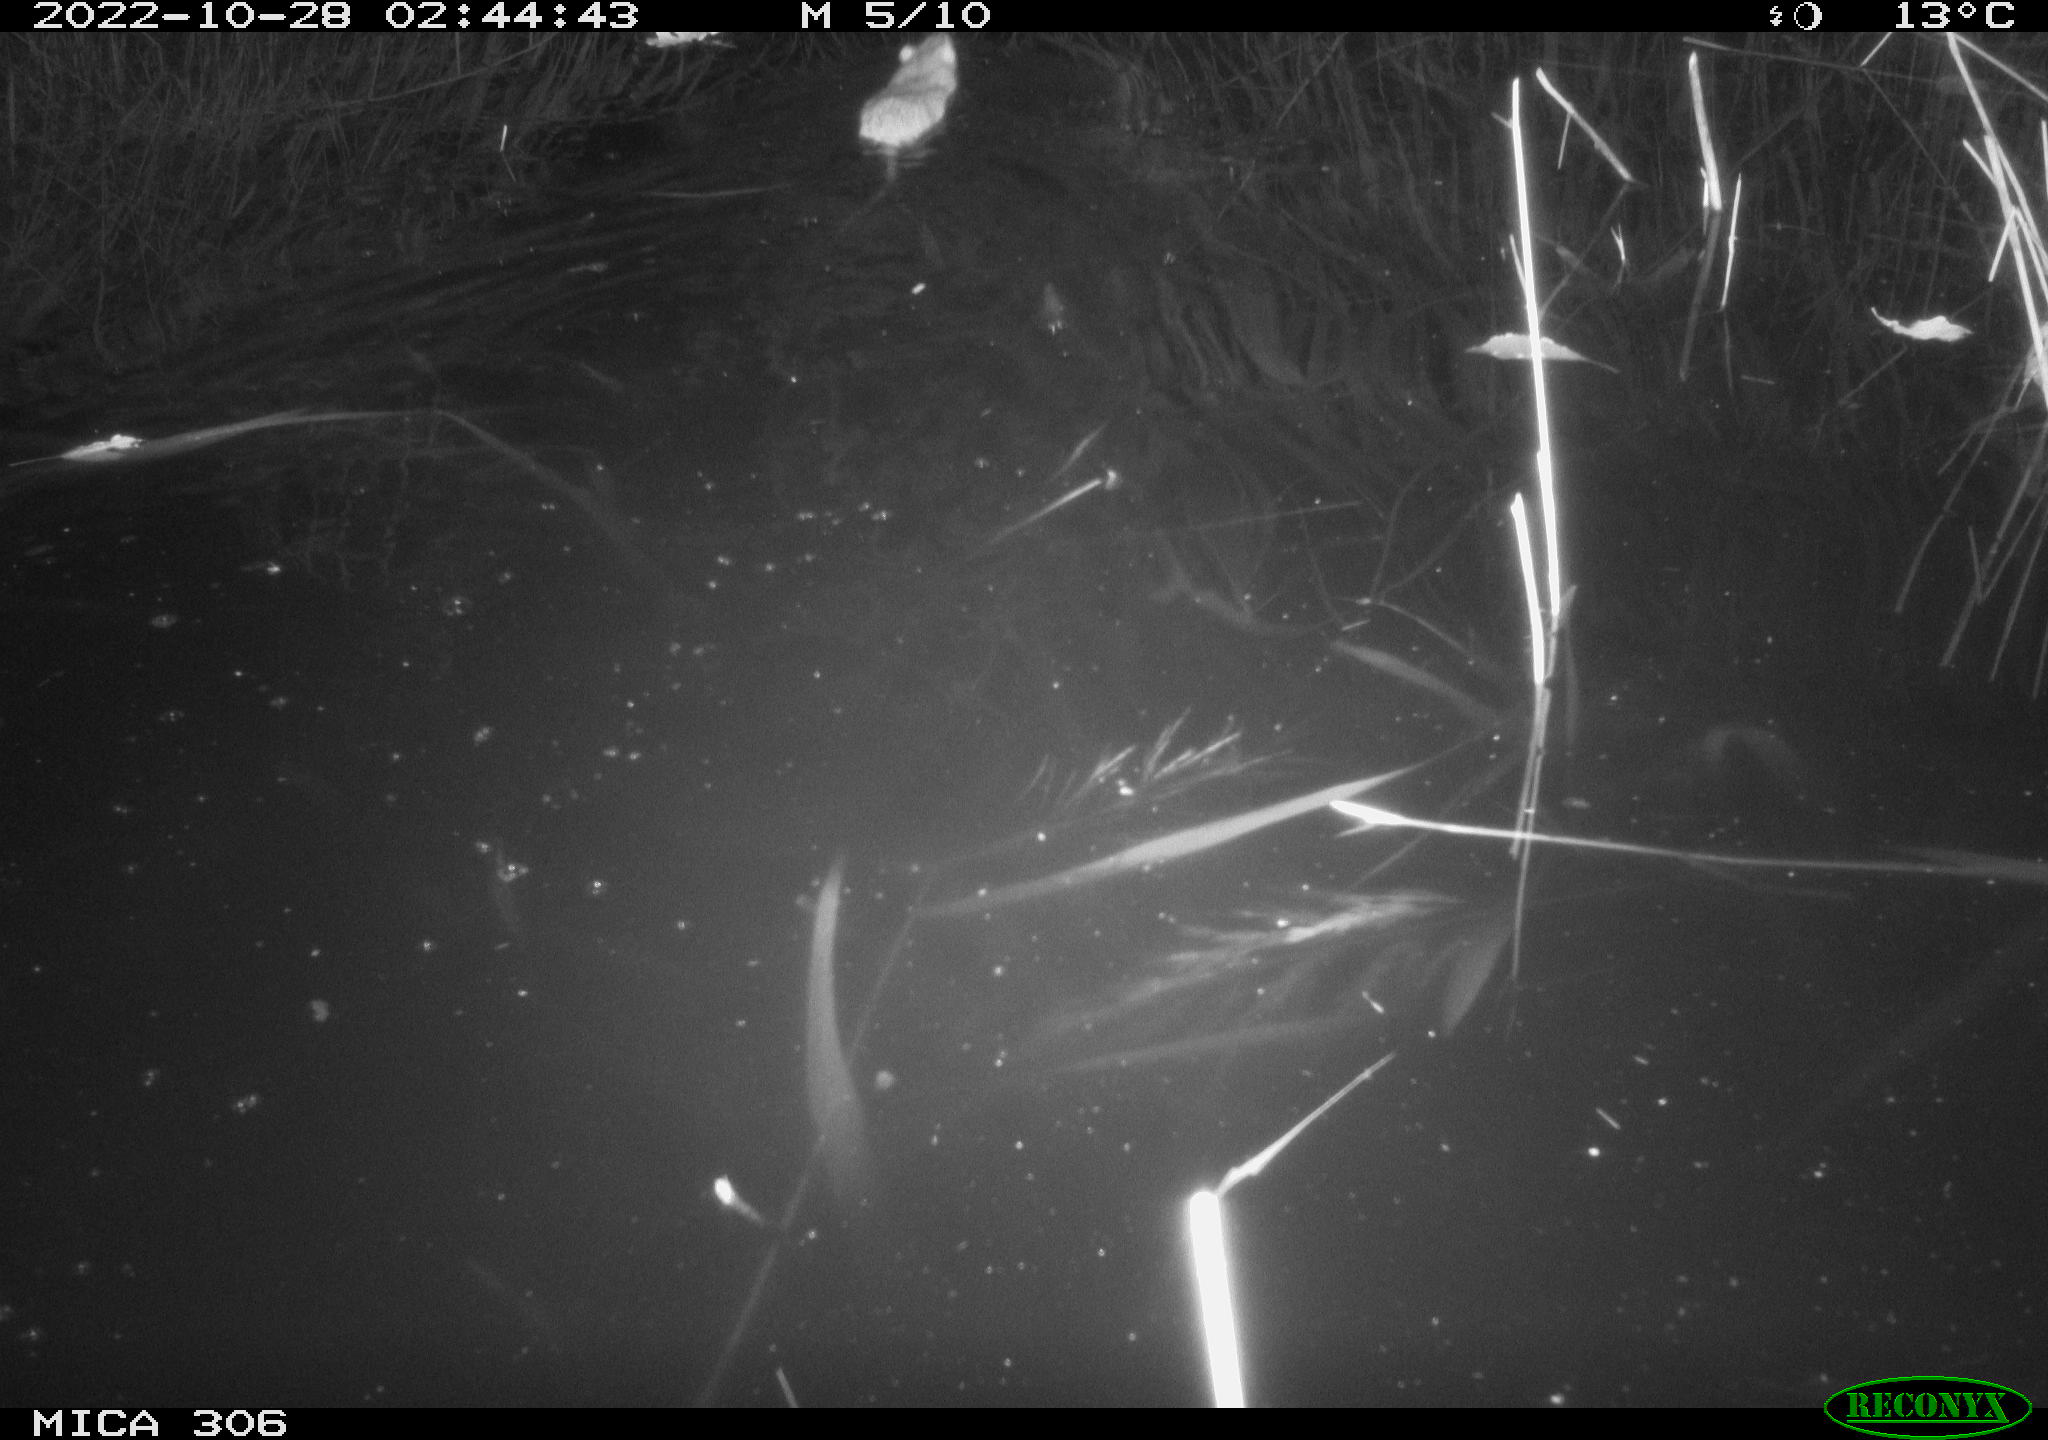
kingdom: Animalia
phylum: Chordata
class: Mammalia
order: Rodentia
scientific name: Rodentia
